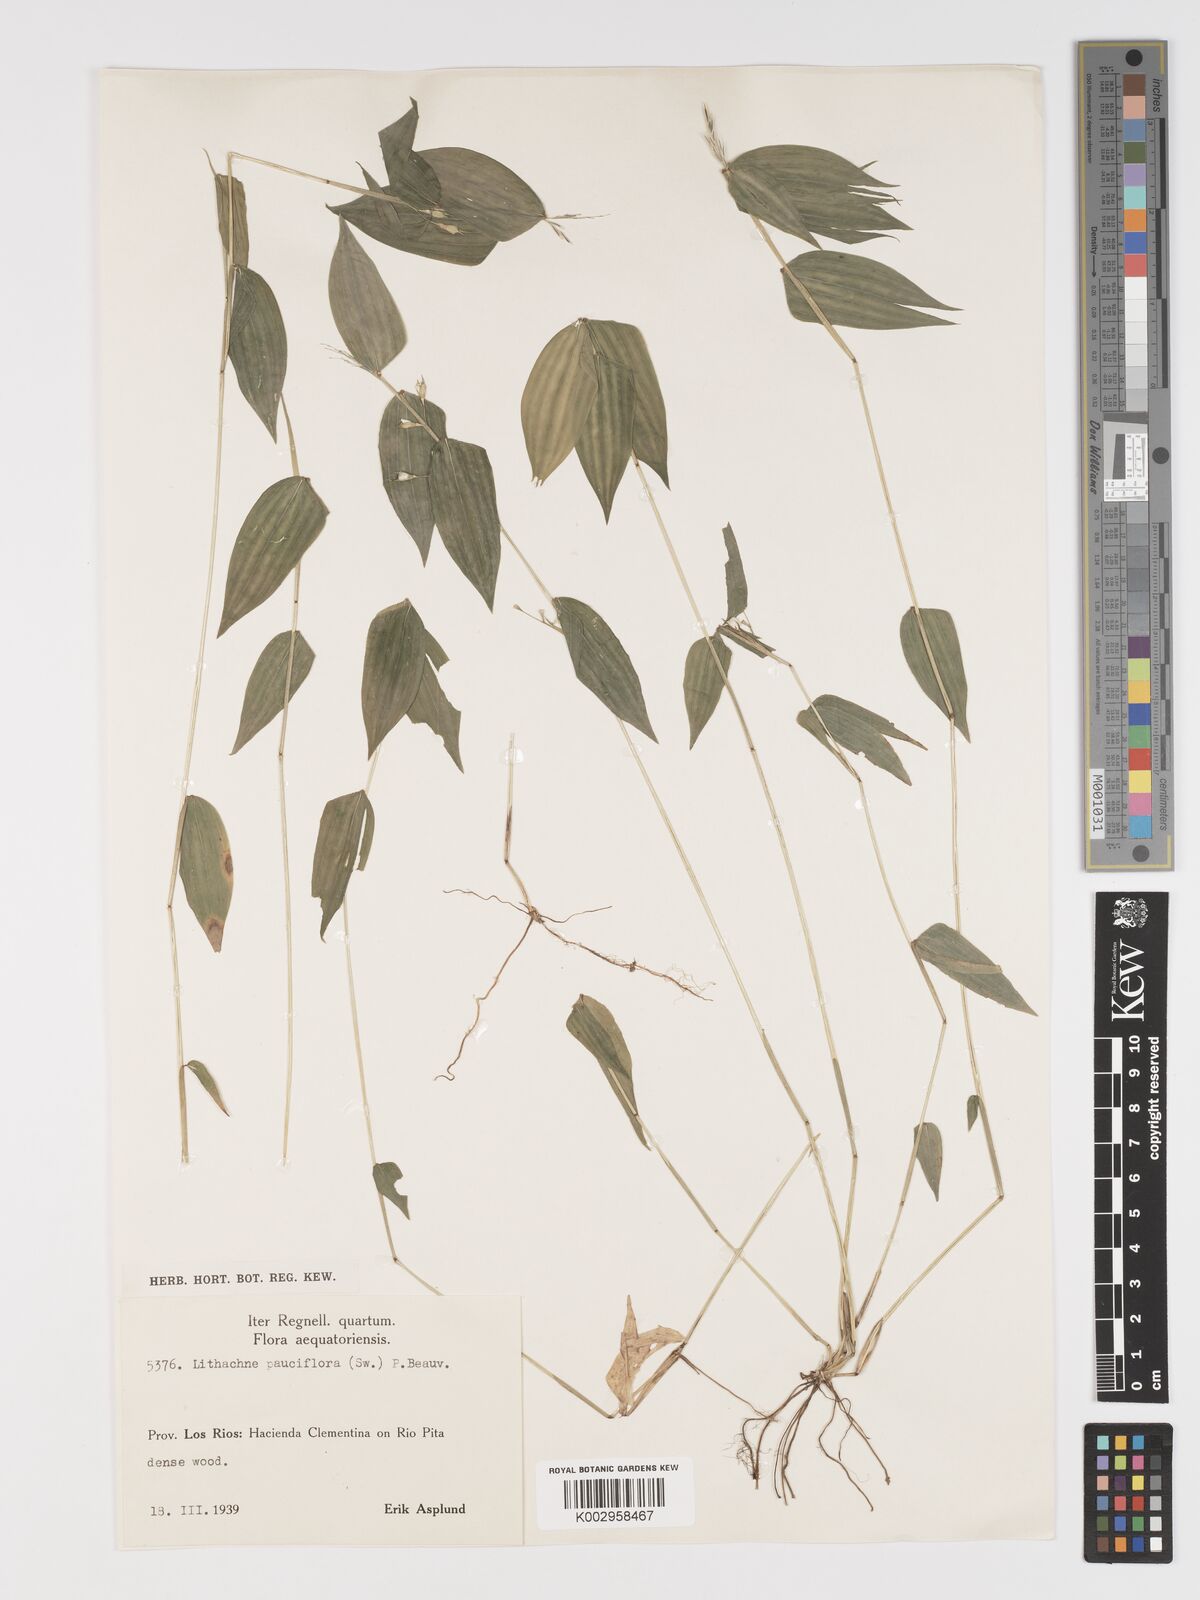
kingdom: Plantae
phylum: Tracheophyta
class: Liliopsida
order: Poales
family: Poaceae
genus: Lithachne
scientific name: Lithachne pauciflora
